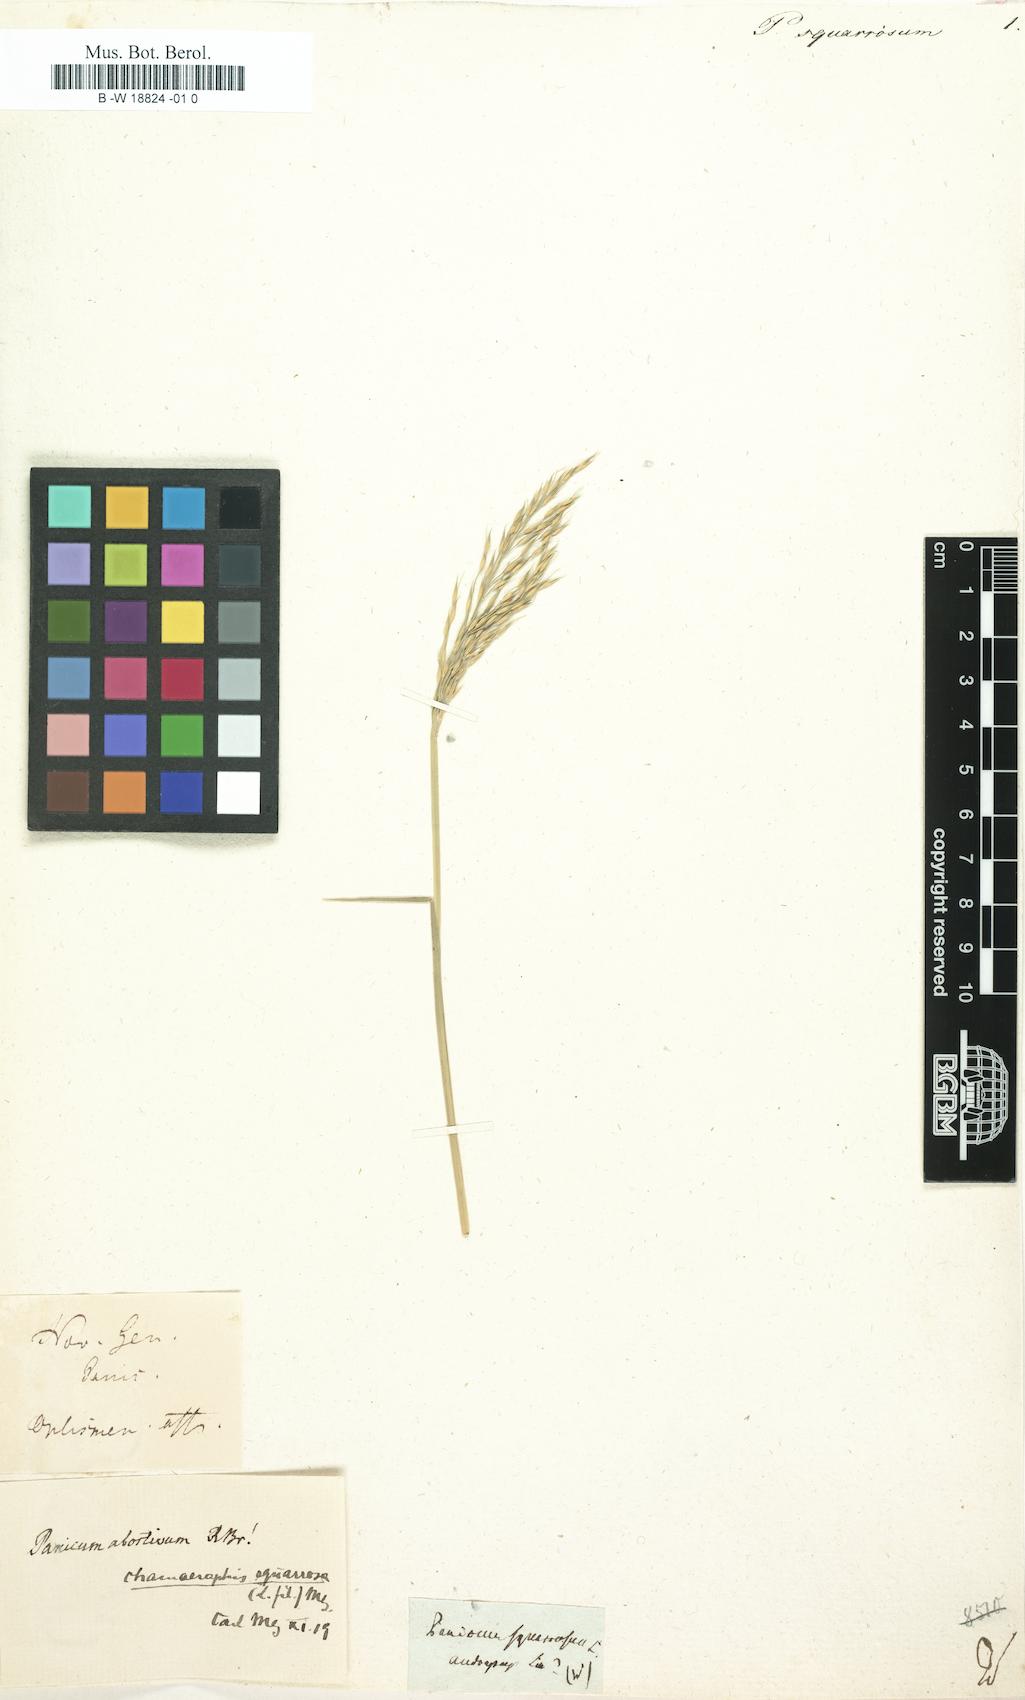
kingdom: Plantae
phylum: Tracheophyta
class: Liliopsida
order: Poales
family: Poaceae
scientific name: Poaceae
